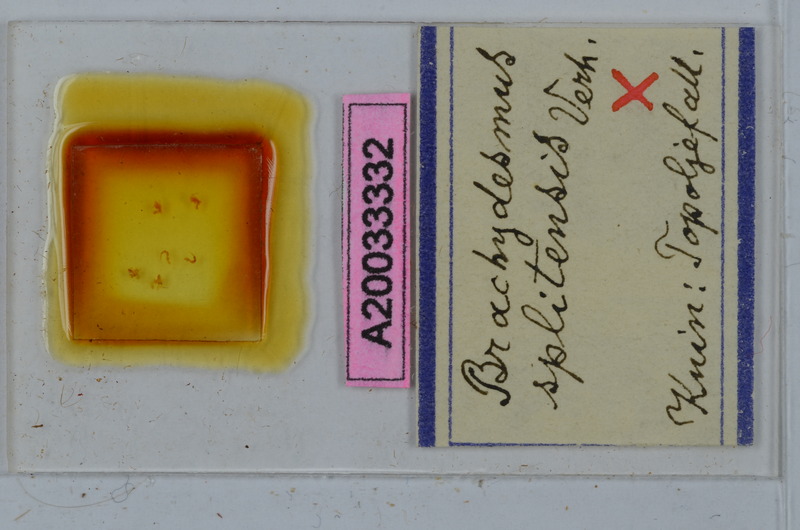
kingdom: Animalia
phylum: Arthropoda
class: Diplopoda
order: Polydesmida
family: Polydesmidae
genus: Brachydesmus
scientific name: Brachydesmus splitensis
